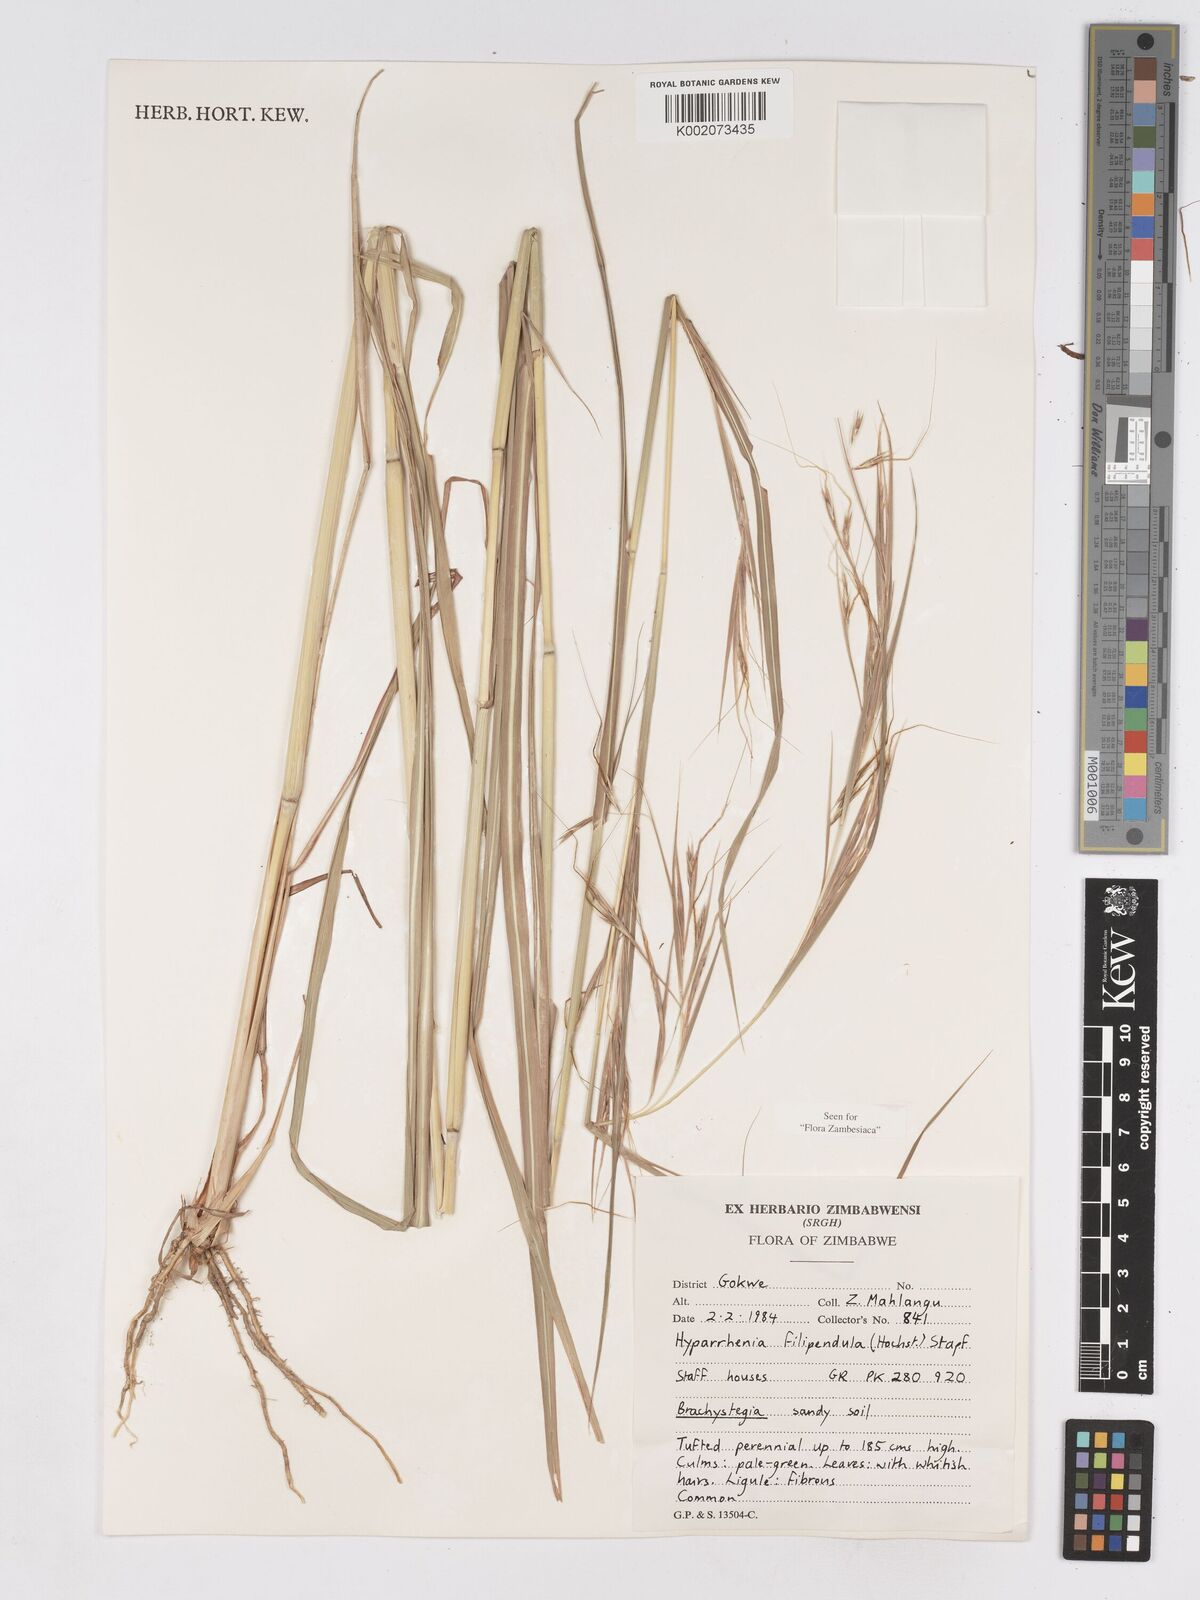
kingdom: Plantae
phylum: Tracheophyta
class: Liliopsida
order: Poales
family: Poaceae
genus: Hyparrhenia
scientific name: Hyparrhenia filipendula
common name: Tambookie grass
